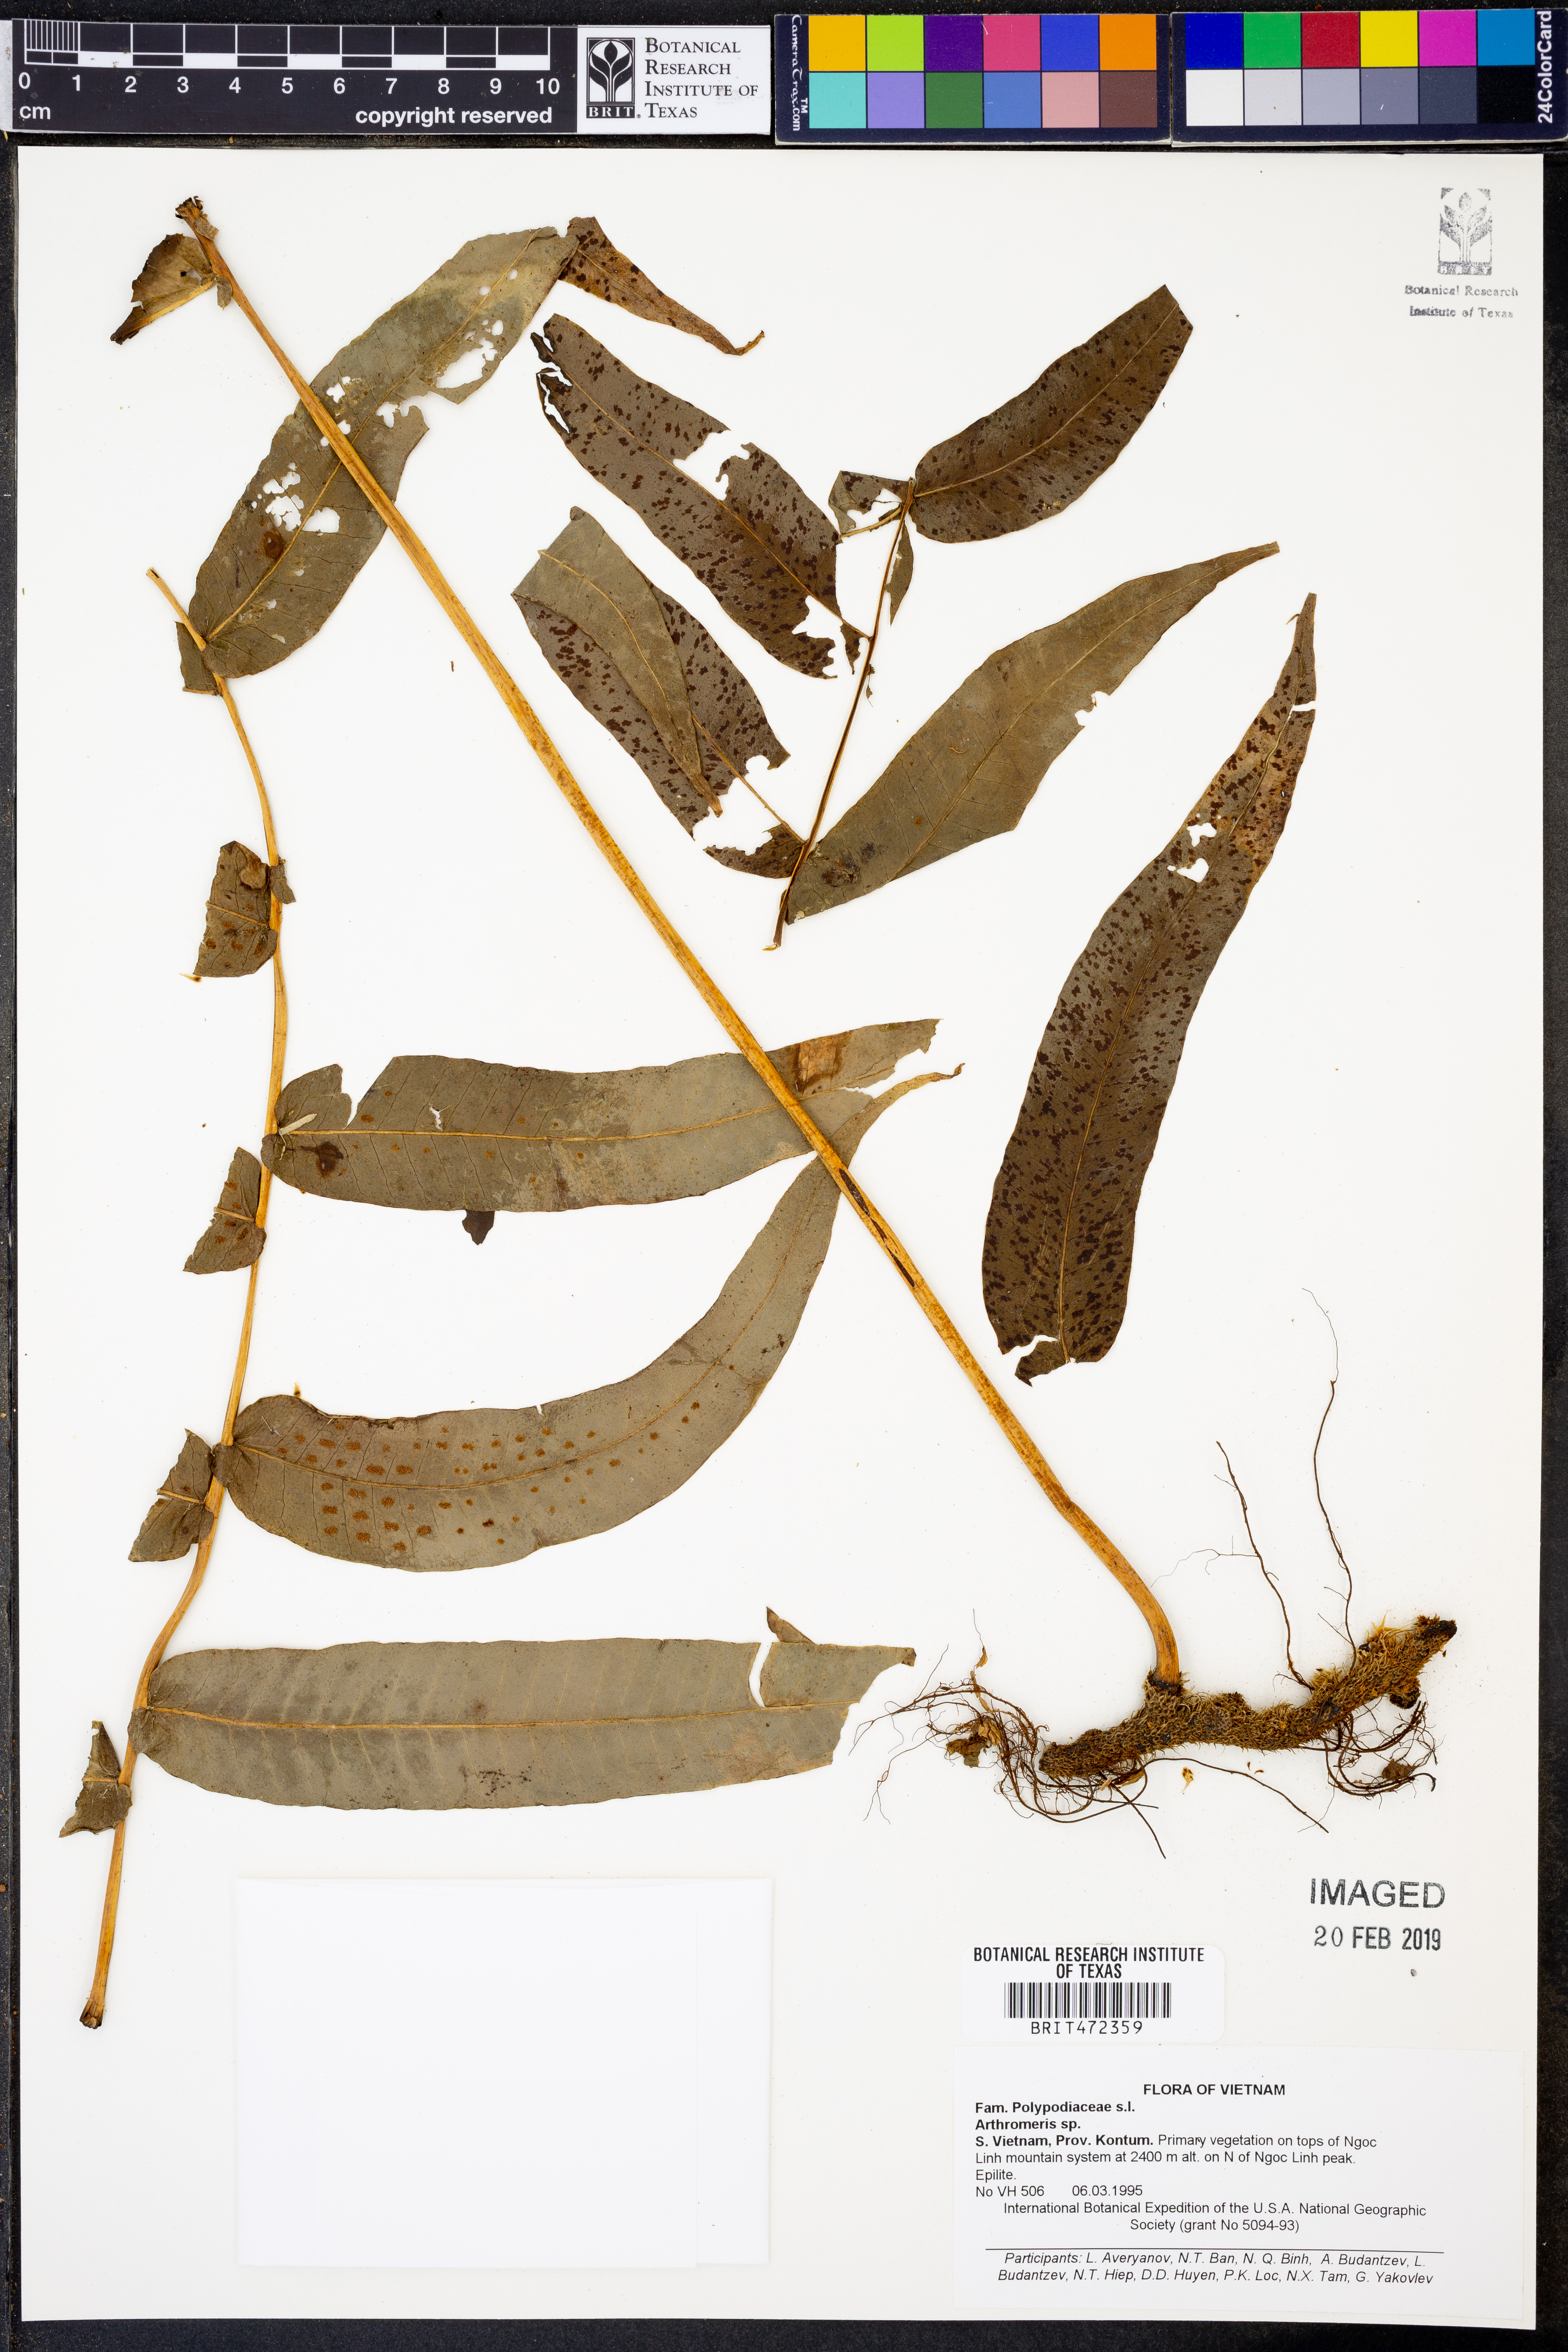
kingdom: Plantae
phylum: Tracheophyta
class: Polypodiopsida
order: Polypodiales
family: Polypodiaceae
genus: Selliguea
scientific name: Selliguea
